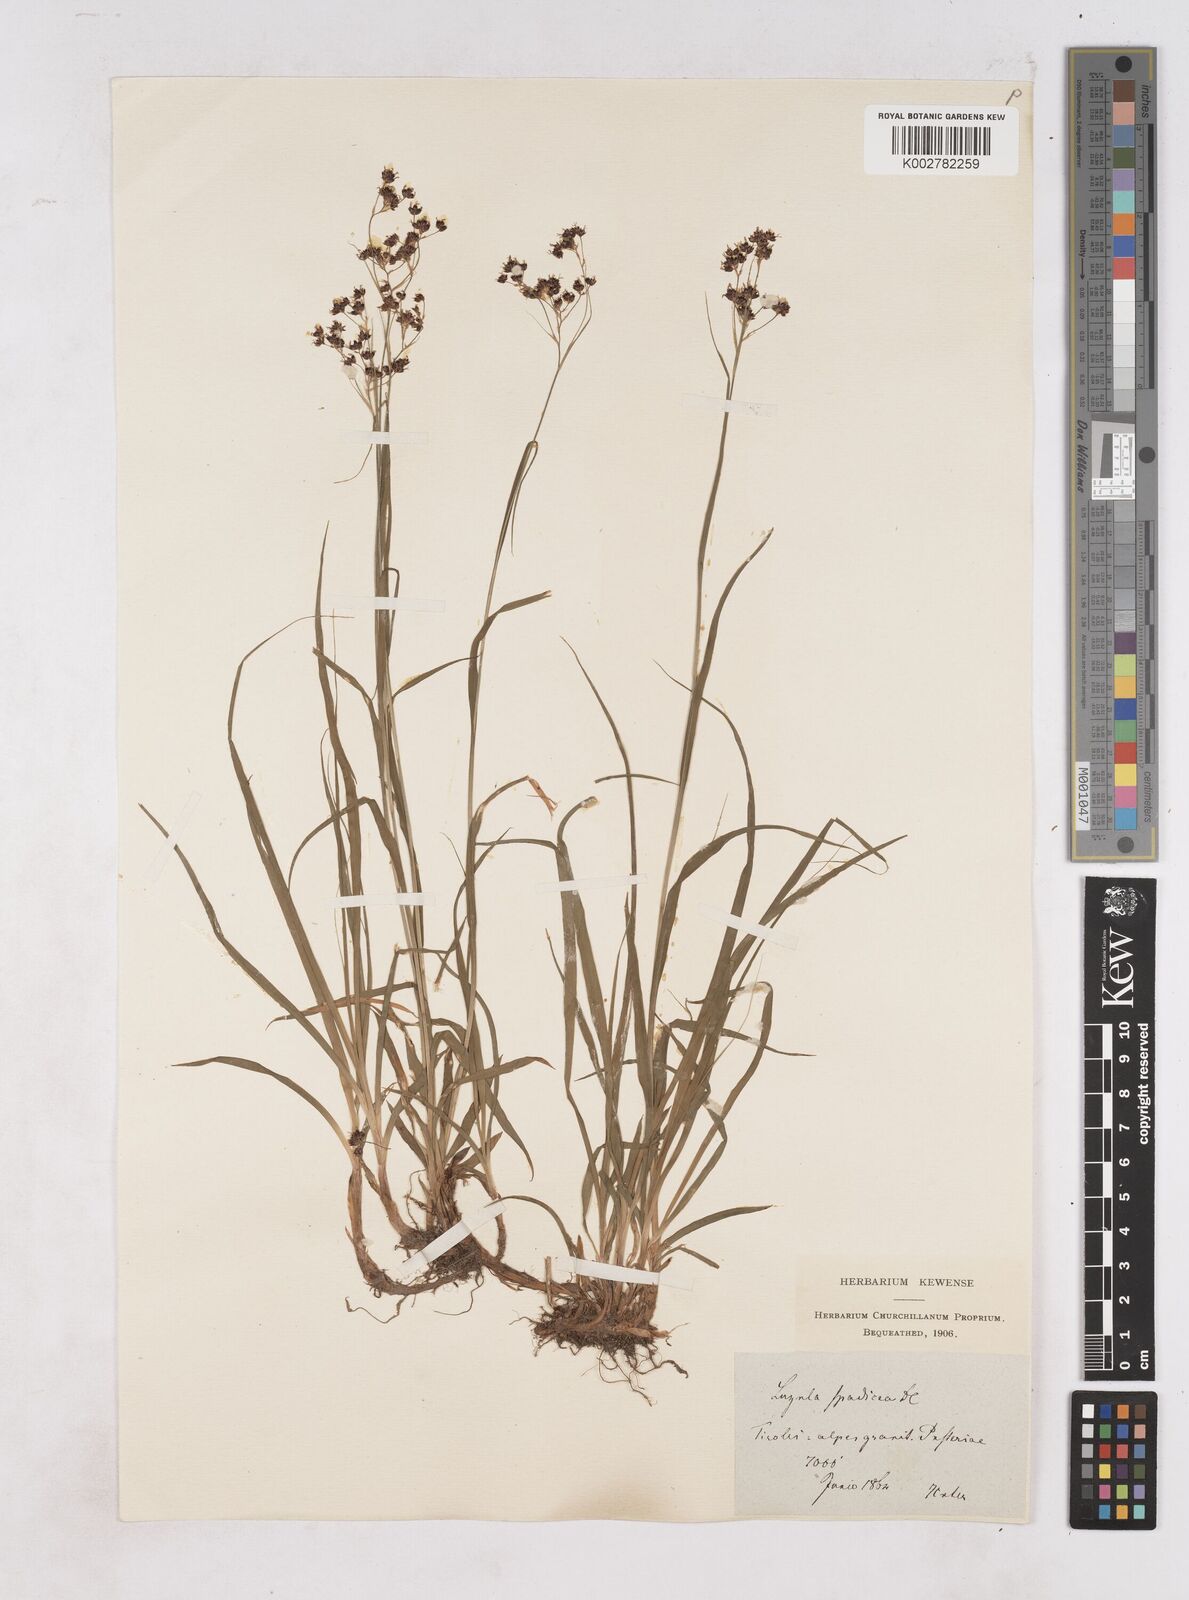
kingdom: Plantae
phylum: Tracheophyta
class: Liliopsida
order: Poales
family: Juncaceae
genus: Luzula
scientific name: Luzula alpinopilosa
